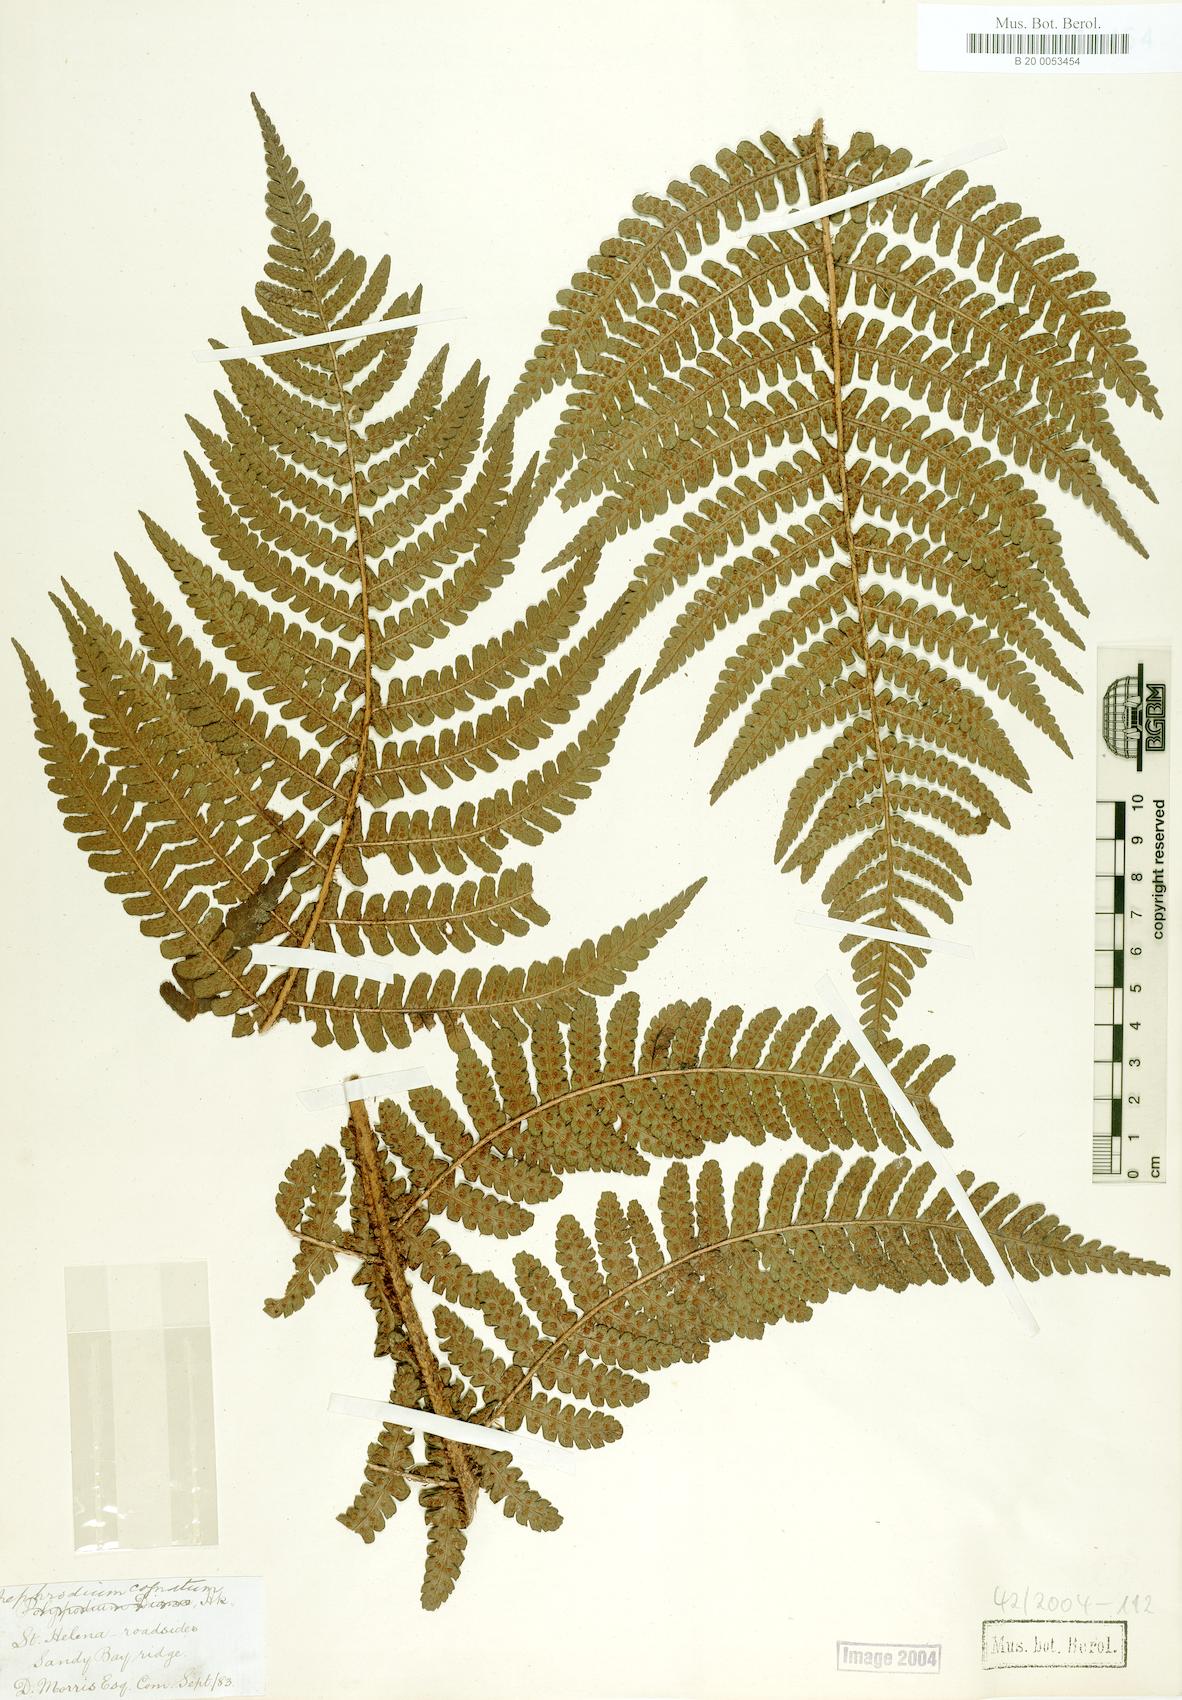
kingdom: Plantae
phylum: Tracheophyta
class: Polypodiopsida
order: Polypodiales
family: Dryopteridaceae
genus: Dryopteris
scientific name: Dryopteris cognata
